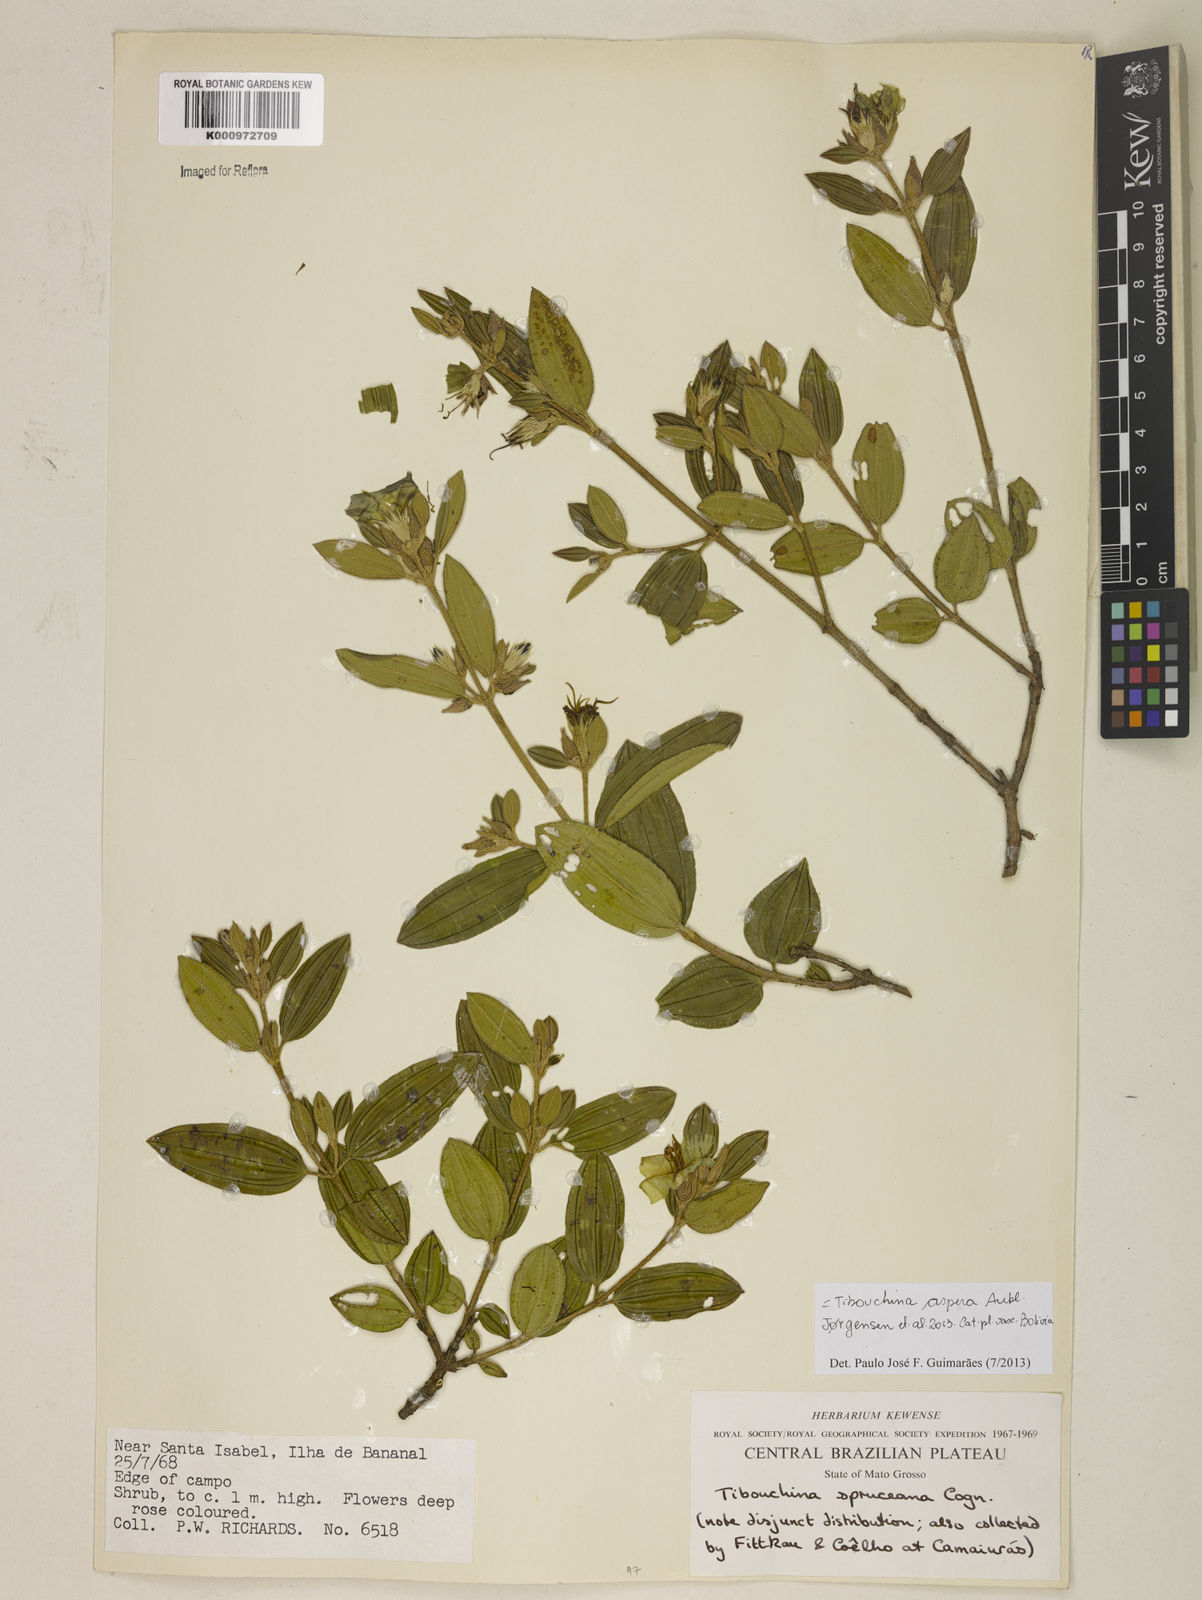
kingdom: Plantae
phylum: Tracheophyta
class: Magnoliopsida
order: Myrtales
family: Melastomataceae
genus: Tibouchina
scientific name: Tibouchina aspera
